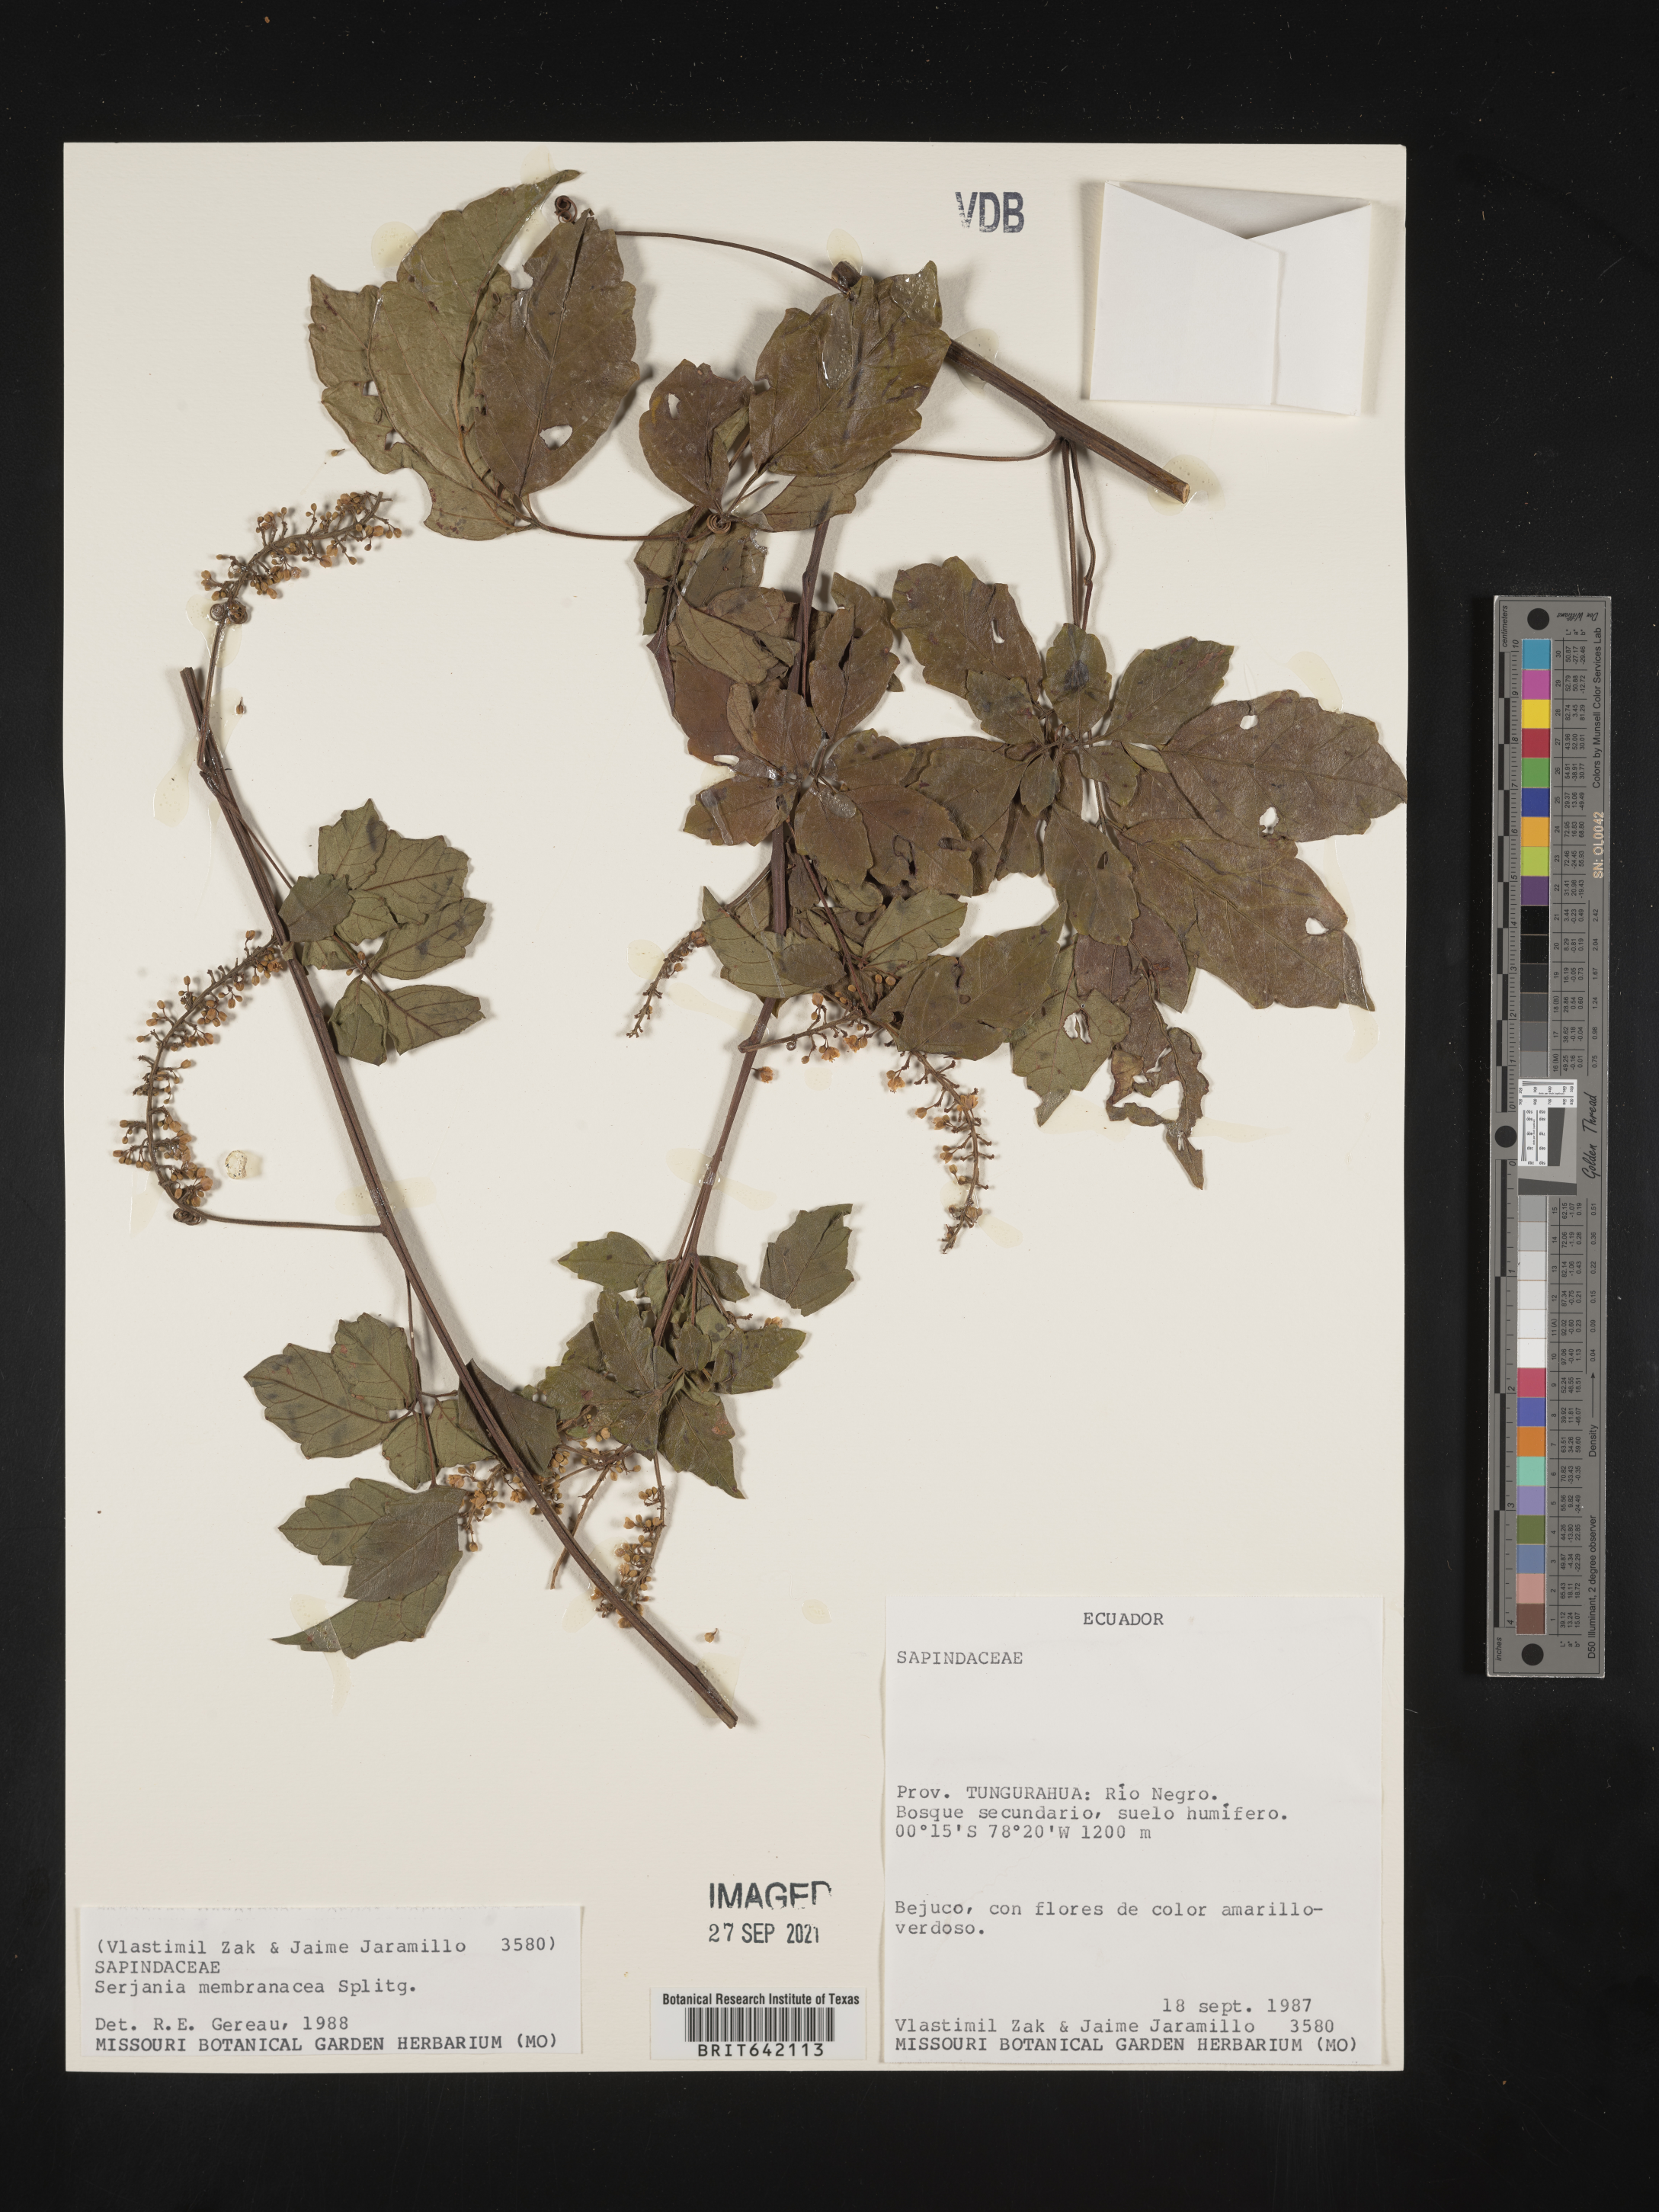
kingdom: Plantae
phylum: Tracheophyta
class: Magnoliopsida
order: Sapindales
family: Sapindaceae
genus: Serjania
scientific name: Serjania
